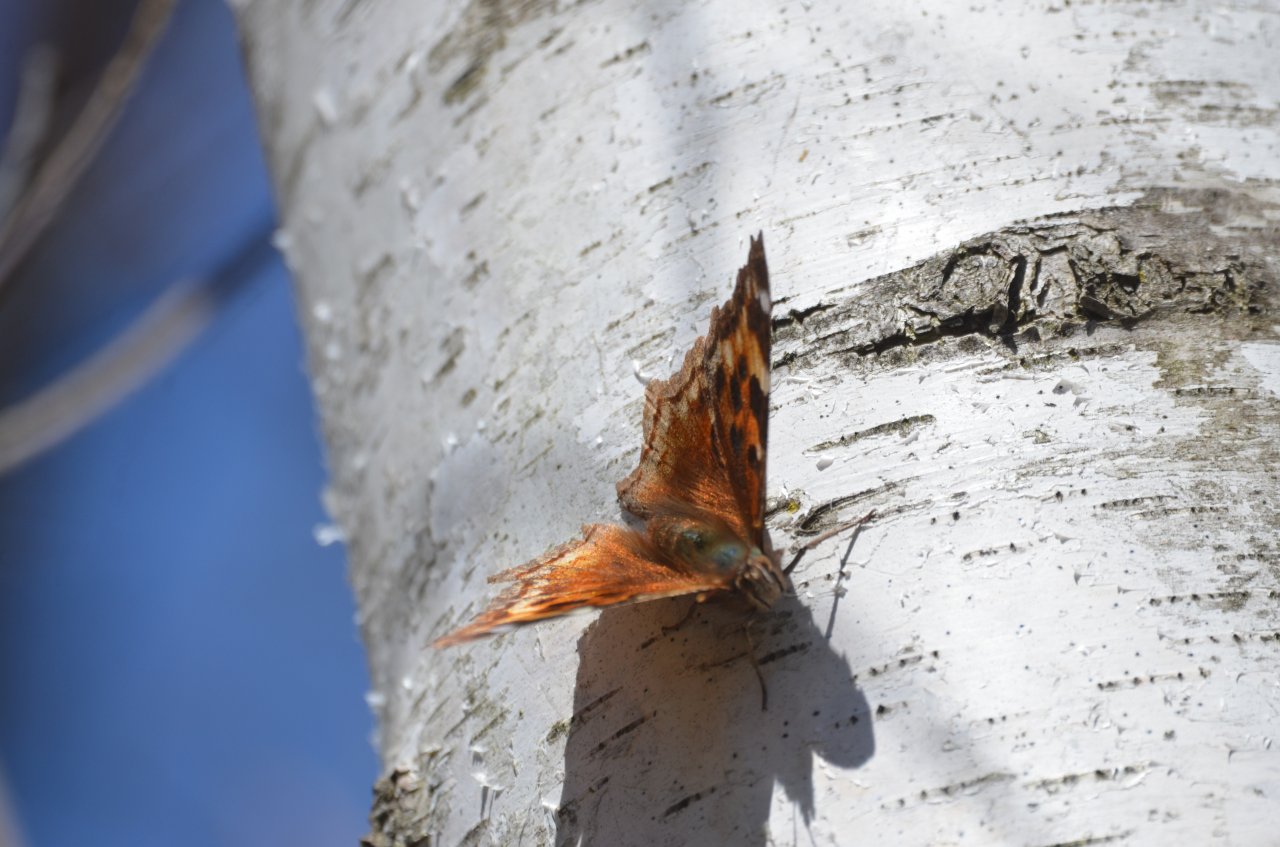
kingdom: Animalia
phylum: Arthropoda
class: Insecta
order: Lepidoptera
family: Nymphalidae
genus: Polygonia
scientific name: Polygonia vaualbum
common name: Compton Tortoiseshell
